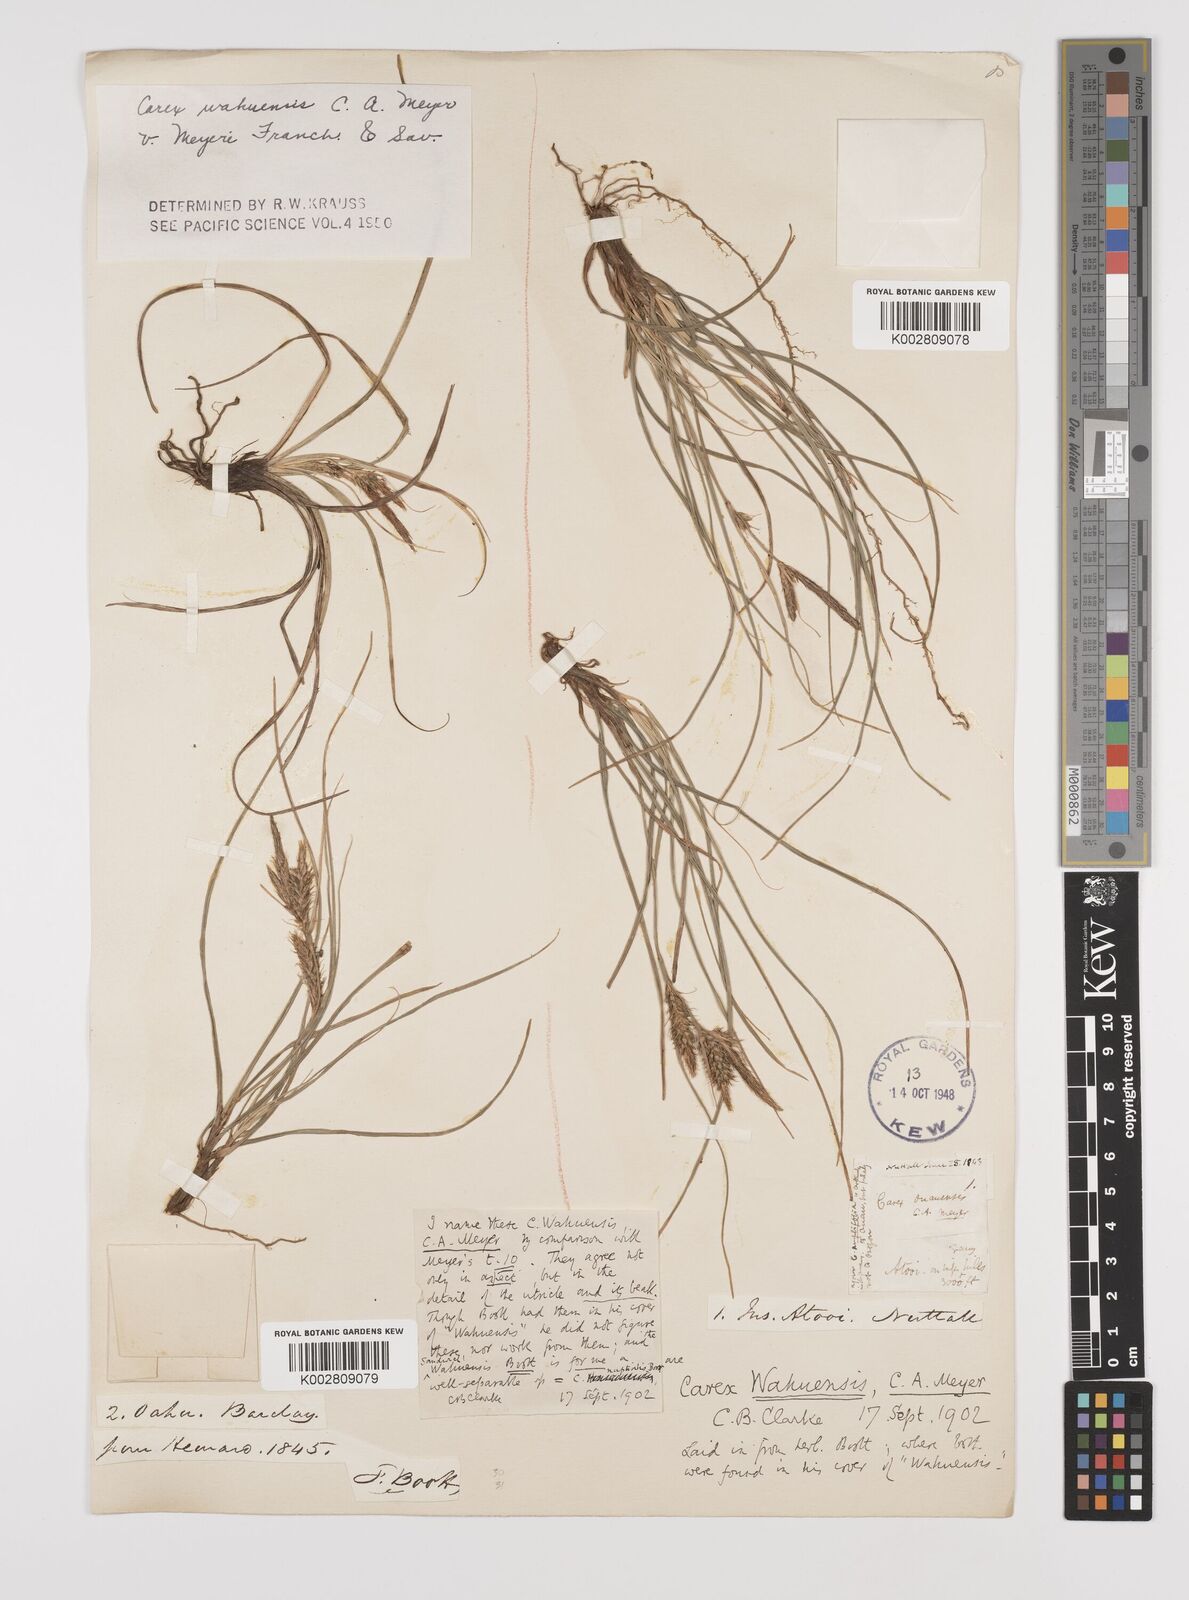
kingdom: Plantae
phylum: Tracheophyta
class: Liliopsida
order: Poales
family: Cyperaceae
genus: Carex
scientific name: Carex wahuensis
